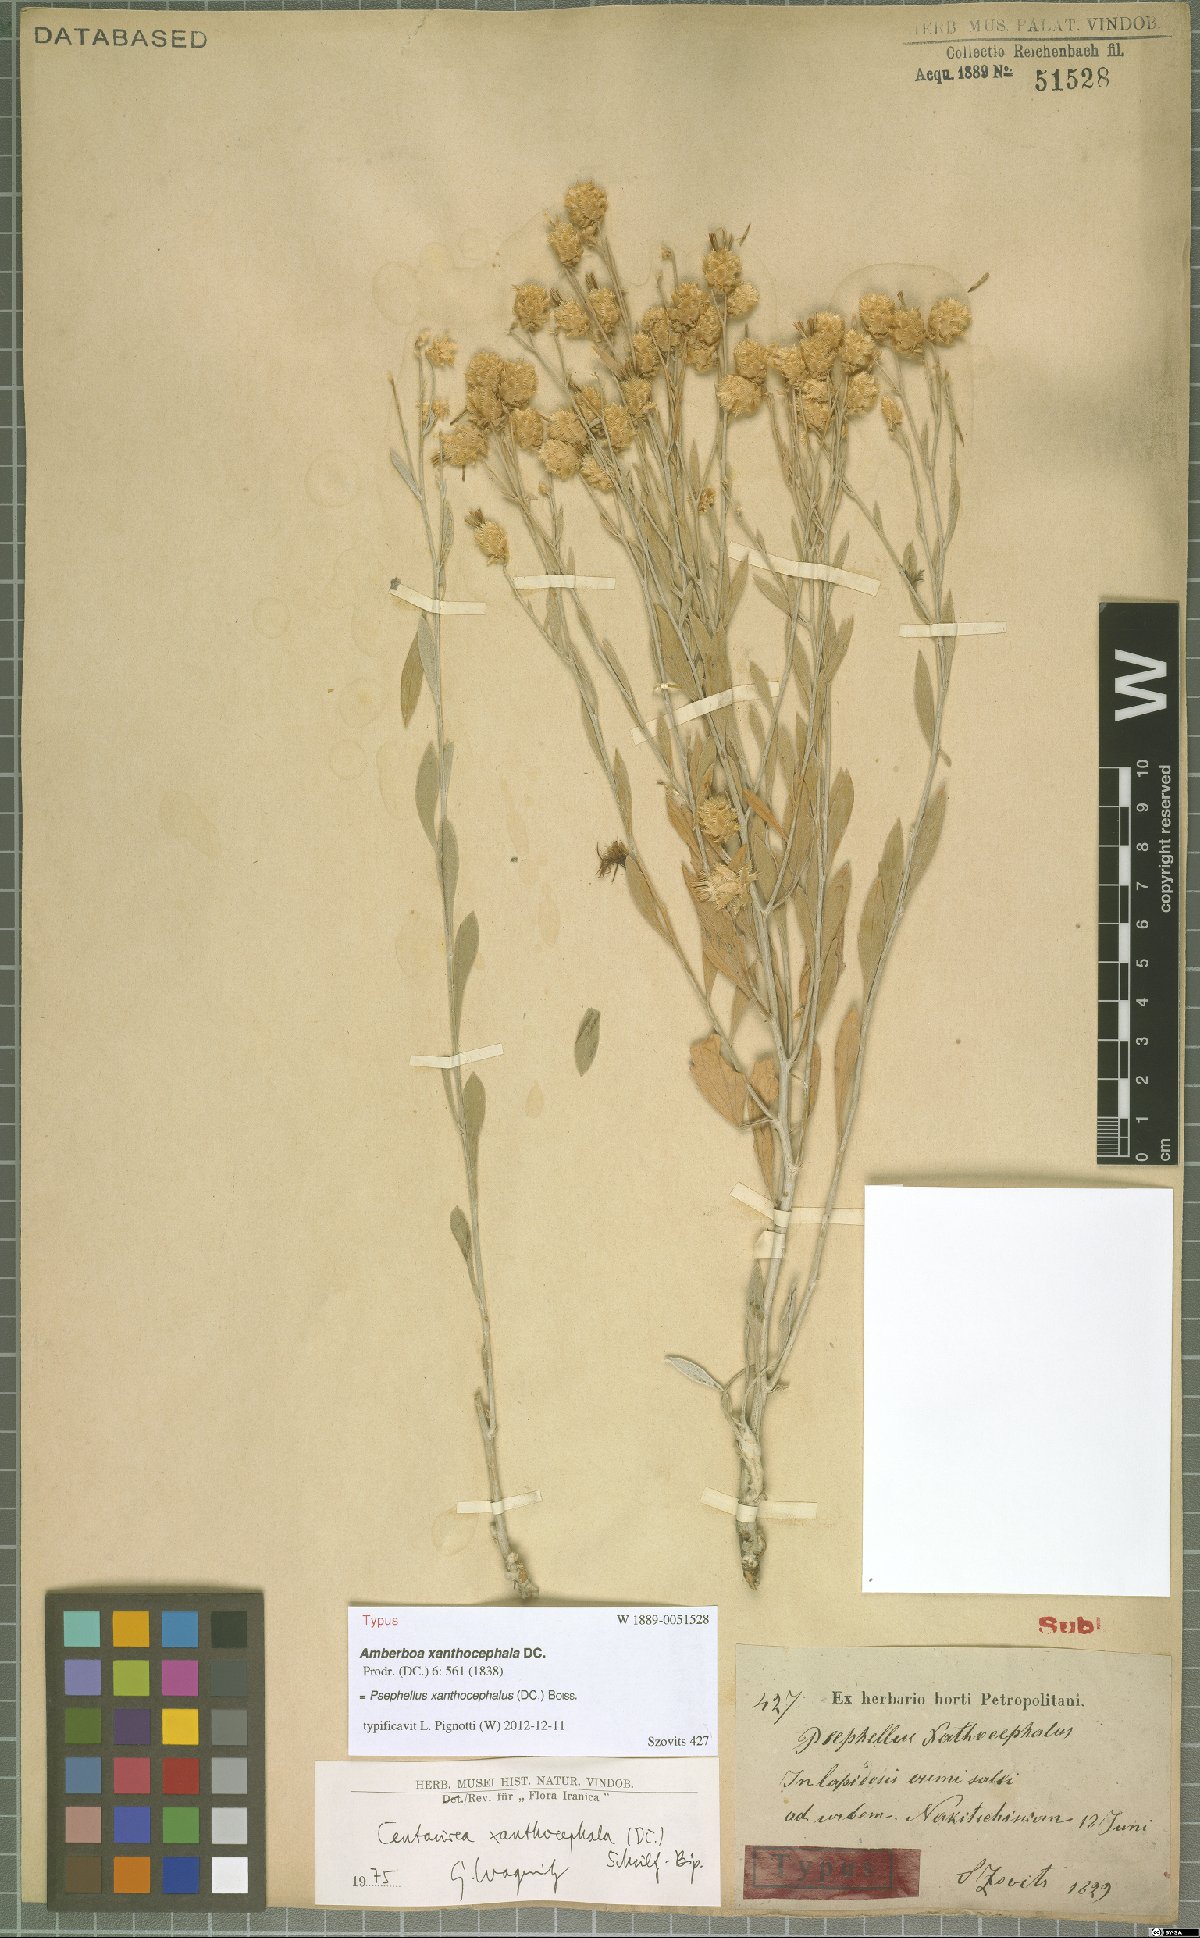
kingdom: Plantae
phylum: Tracheophyta
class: Magnoliopsida
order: Asterales
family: Asteraceae
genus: Psephellus
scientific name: Psephellus xanthocephalus
